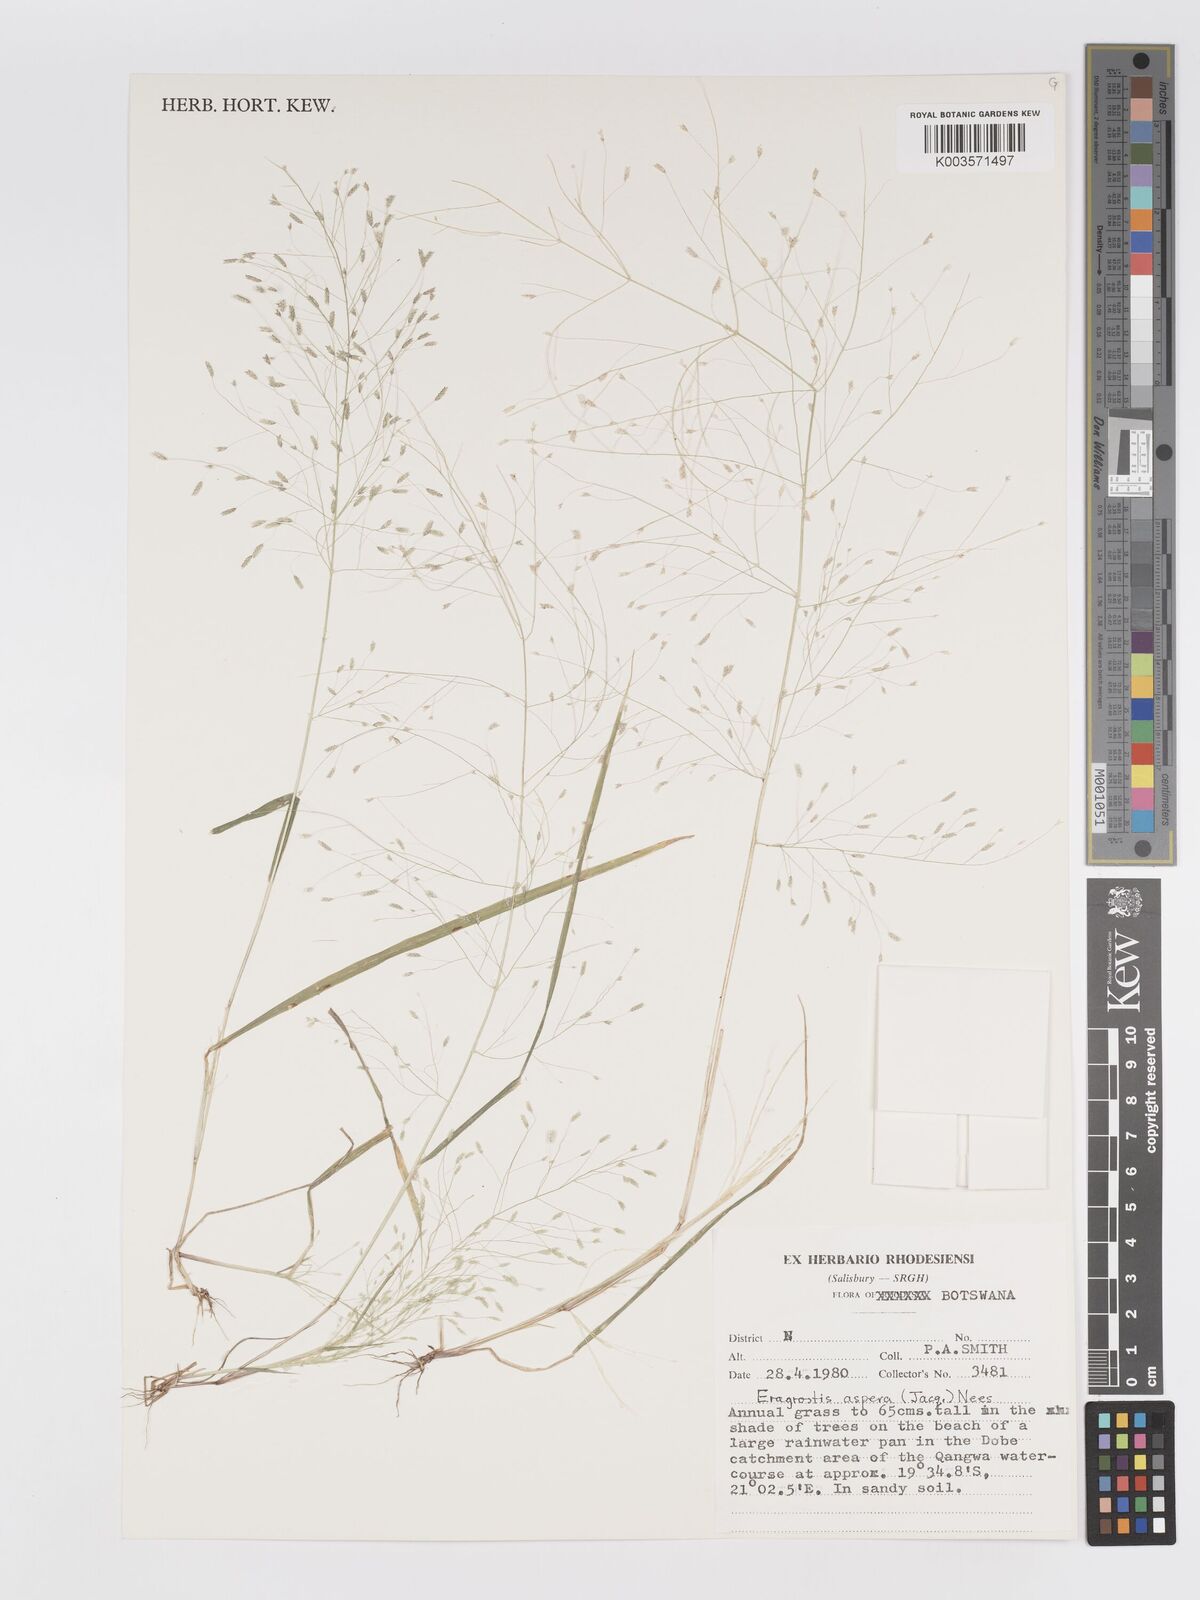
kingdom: Plantae
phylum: Tracheophyta
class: Liliopsida
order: Poales
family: Poaceae
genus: Eragrostis
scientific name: Eragrostis aspera
